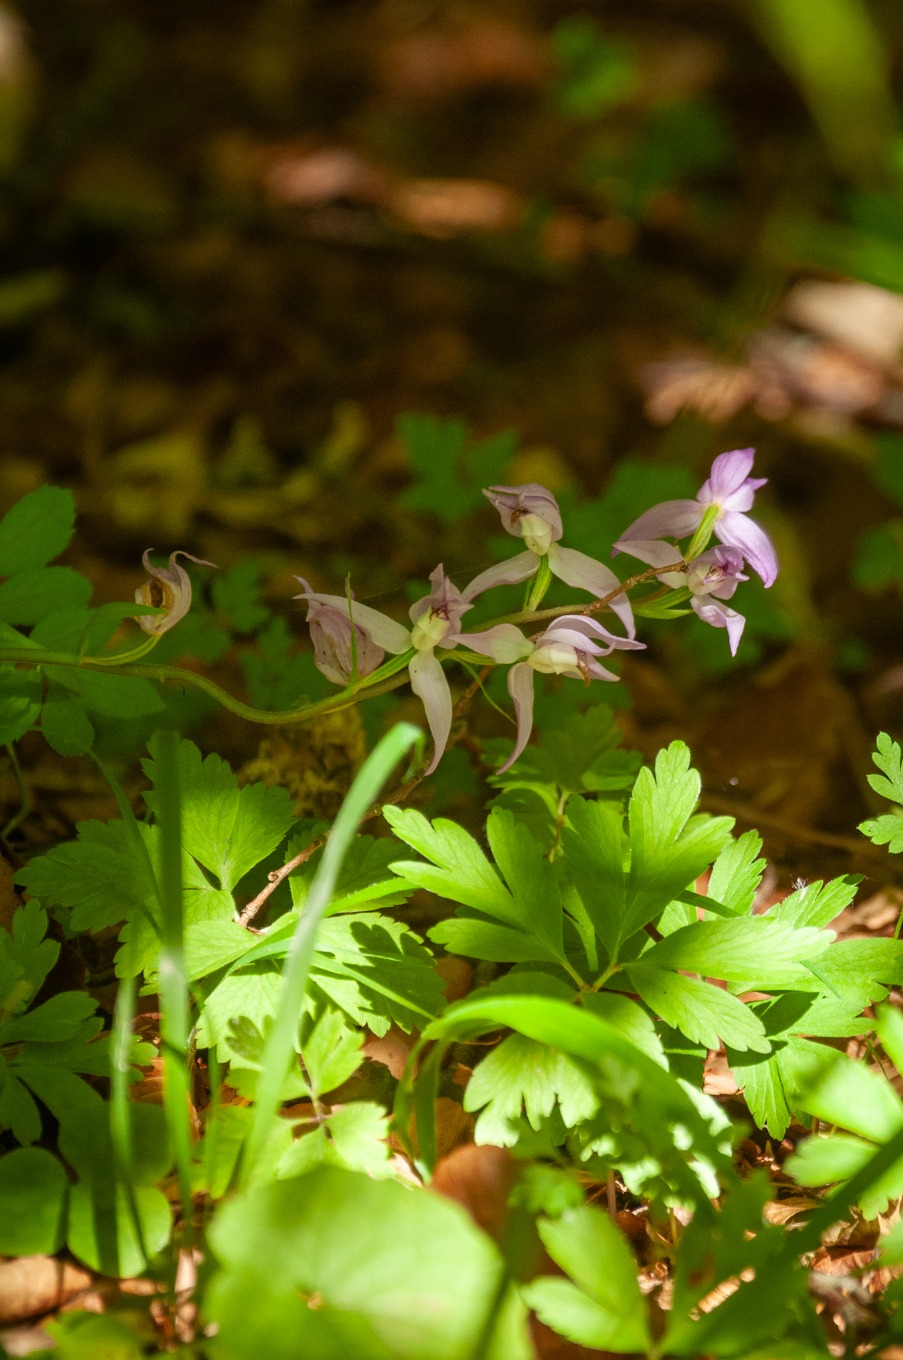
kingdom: Plantae
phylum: Tracheophyta
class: Liliopsida
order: Asparagales
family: Orchidaceae
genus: Cephalanthera
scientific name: Cephalanthera rubra
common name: Rød skovlilje
